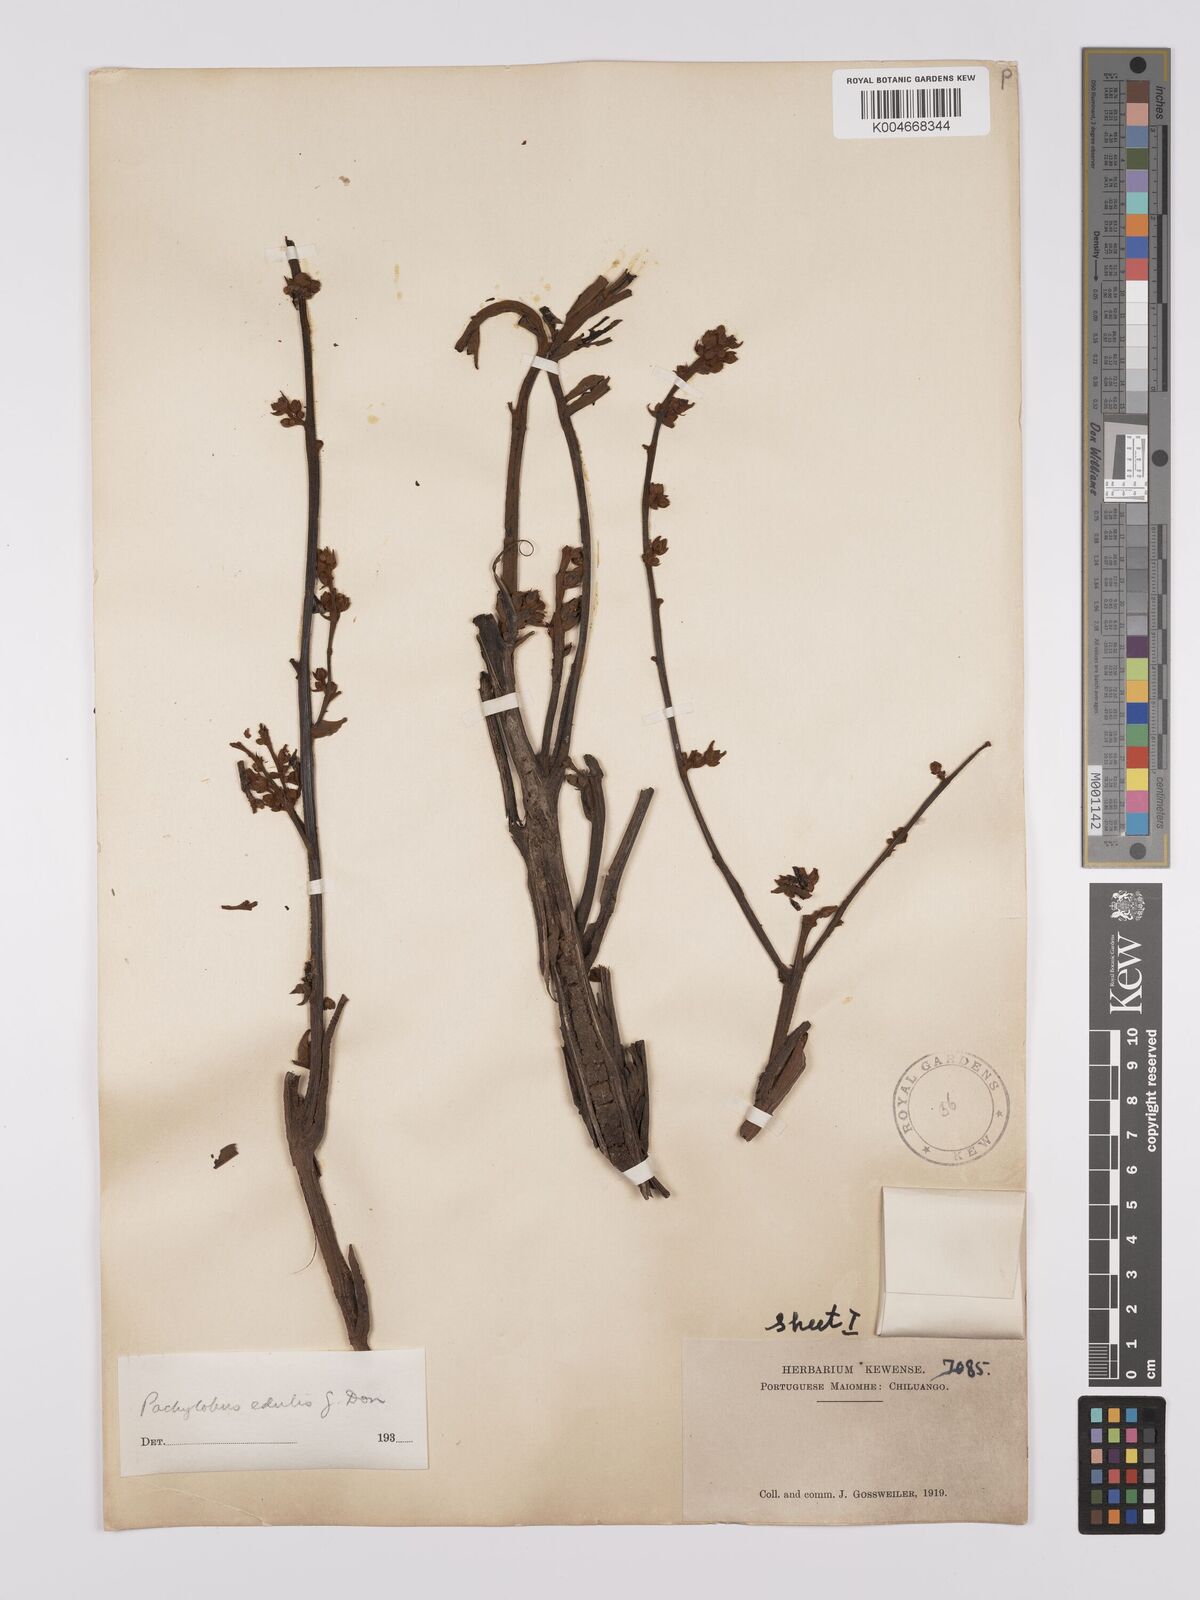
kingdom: Plantae
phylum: Tracheophyta
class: Magnoliopsida
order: Sapindales
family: Burseraceae
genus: Pachylobus
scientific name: Pachylobus edulis
